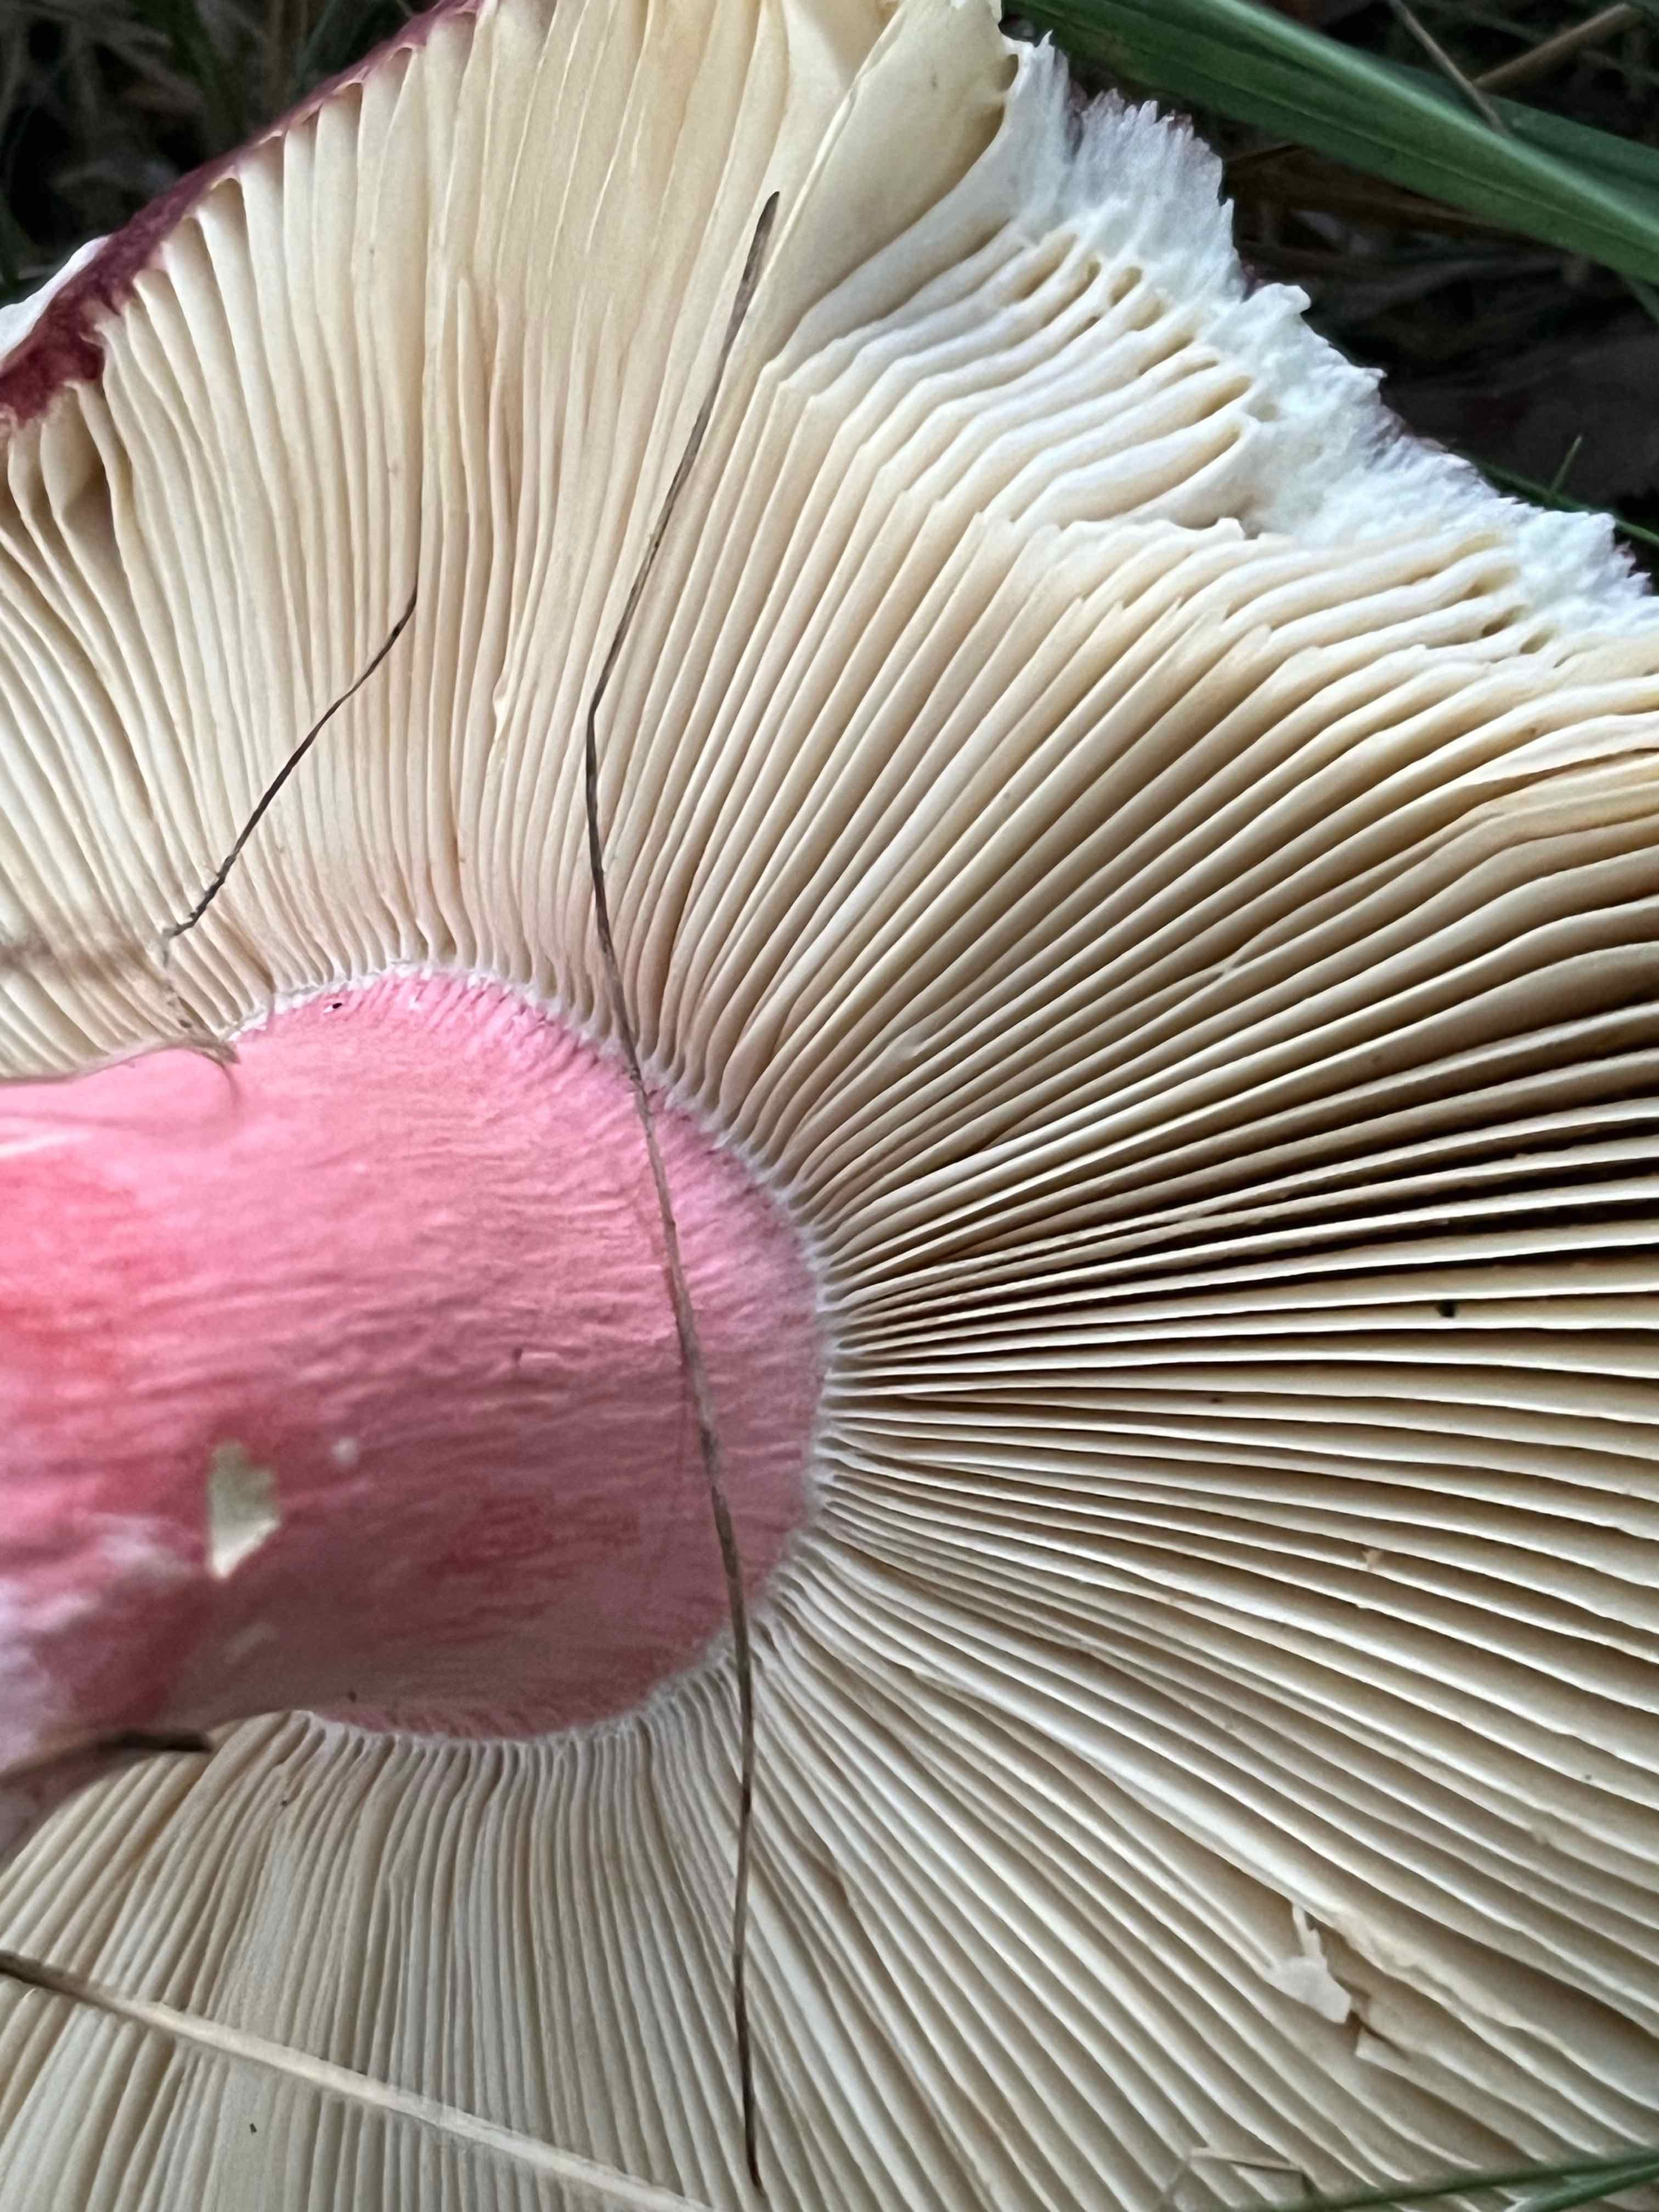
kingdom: Fungi
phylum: Basidiomycota
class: Agaricomycetes
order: Russulales
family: Russulaceae
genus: Russula
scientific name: Russula xerampelina
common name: hummer-skørhat
